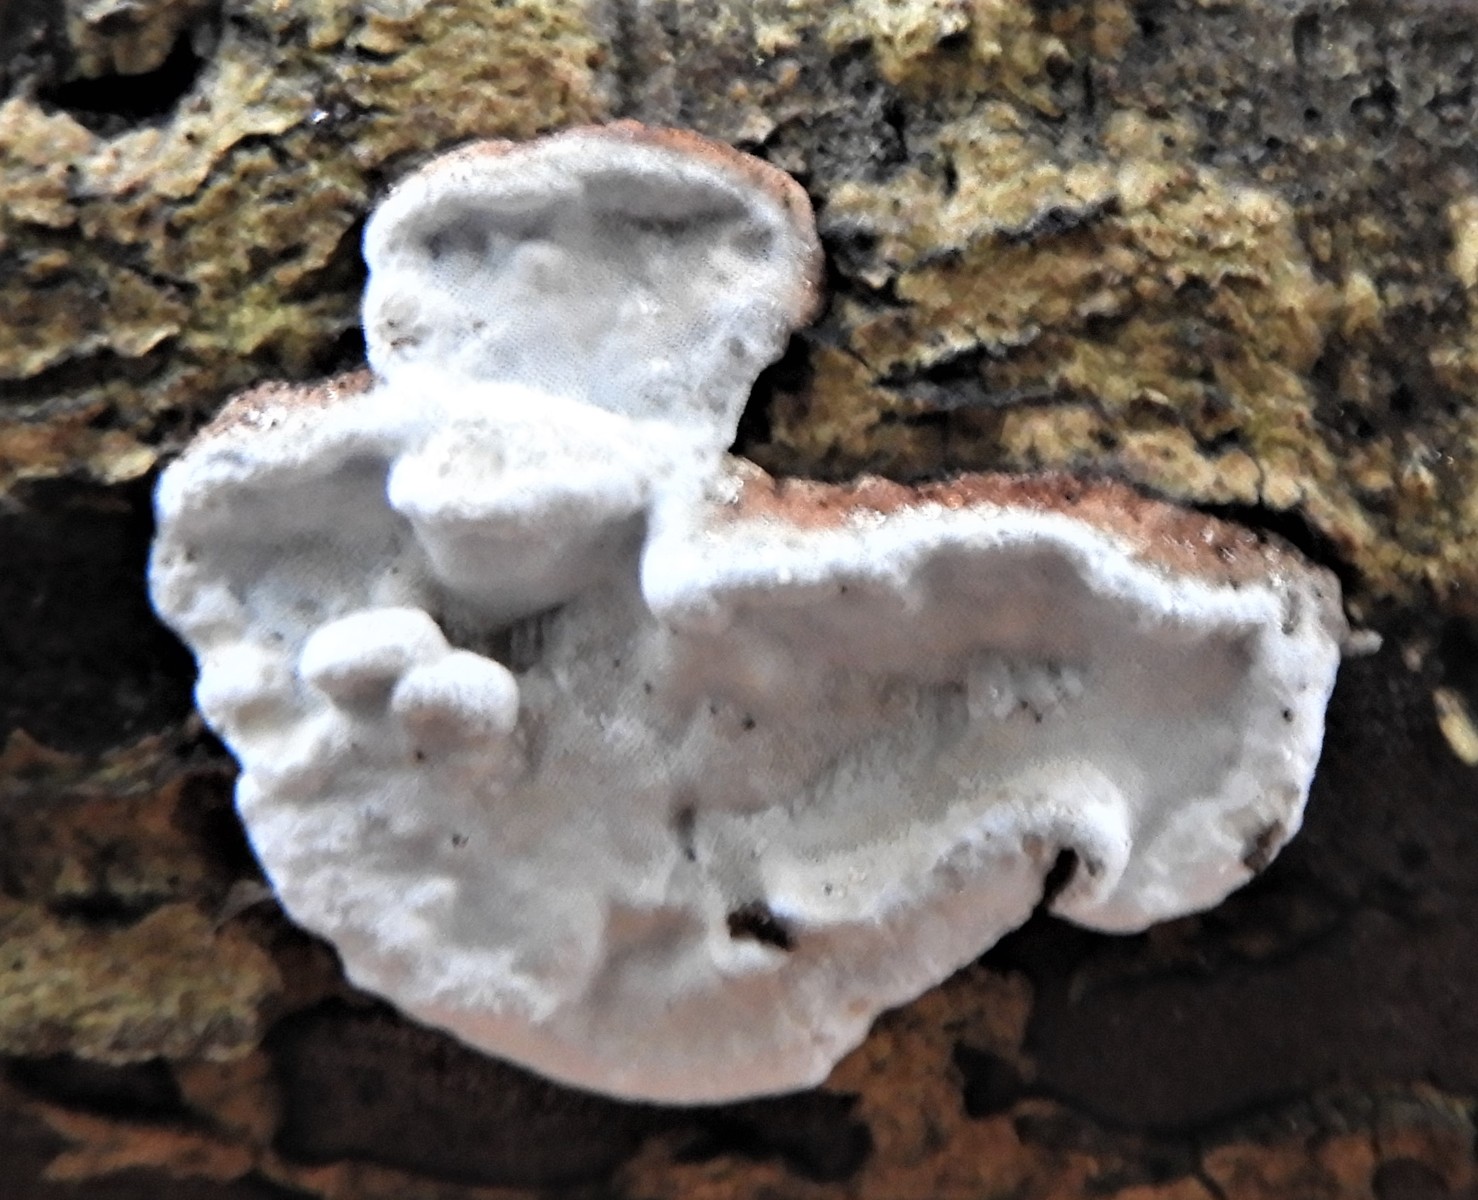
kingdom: Fungi
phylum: Basidiomycota
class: Agaricomycetes
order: Polyporales
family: Incrustoporiaceae
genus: Skeletocutis
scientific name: Skeletocutis nemoralis
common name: stor krystalporesvamp
